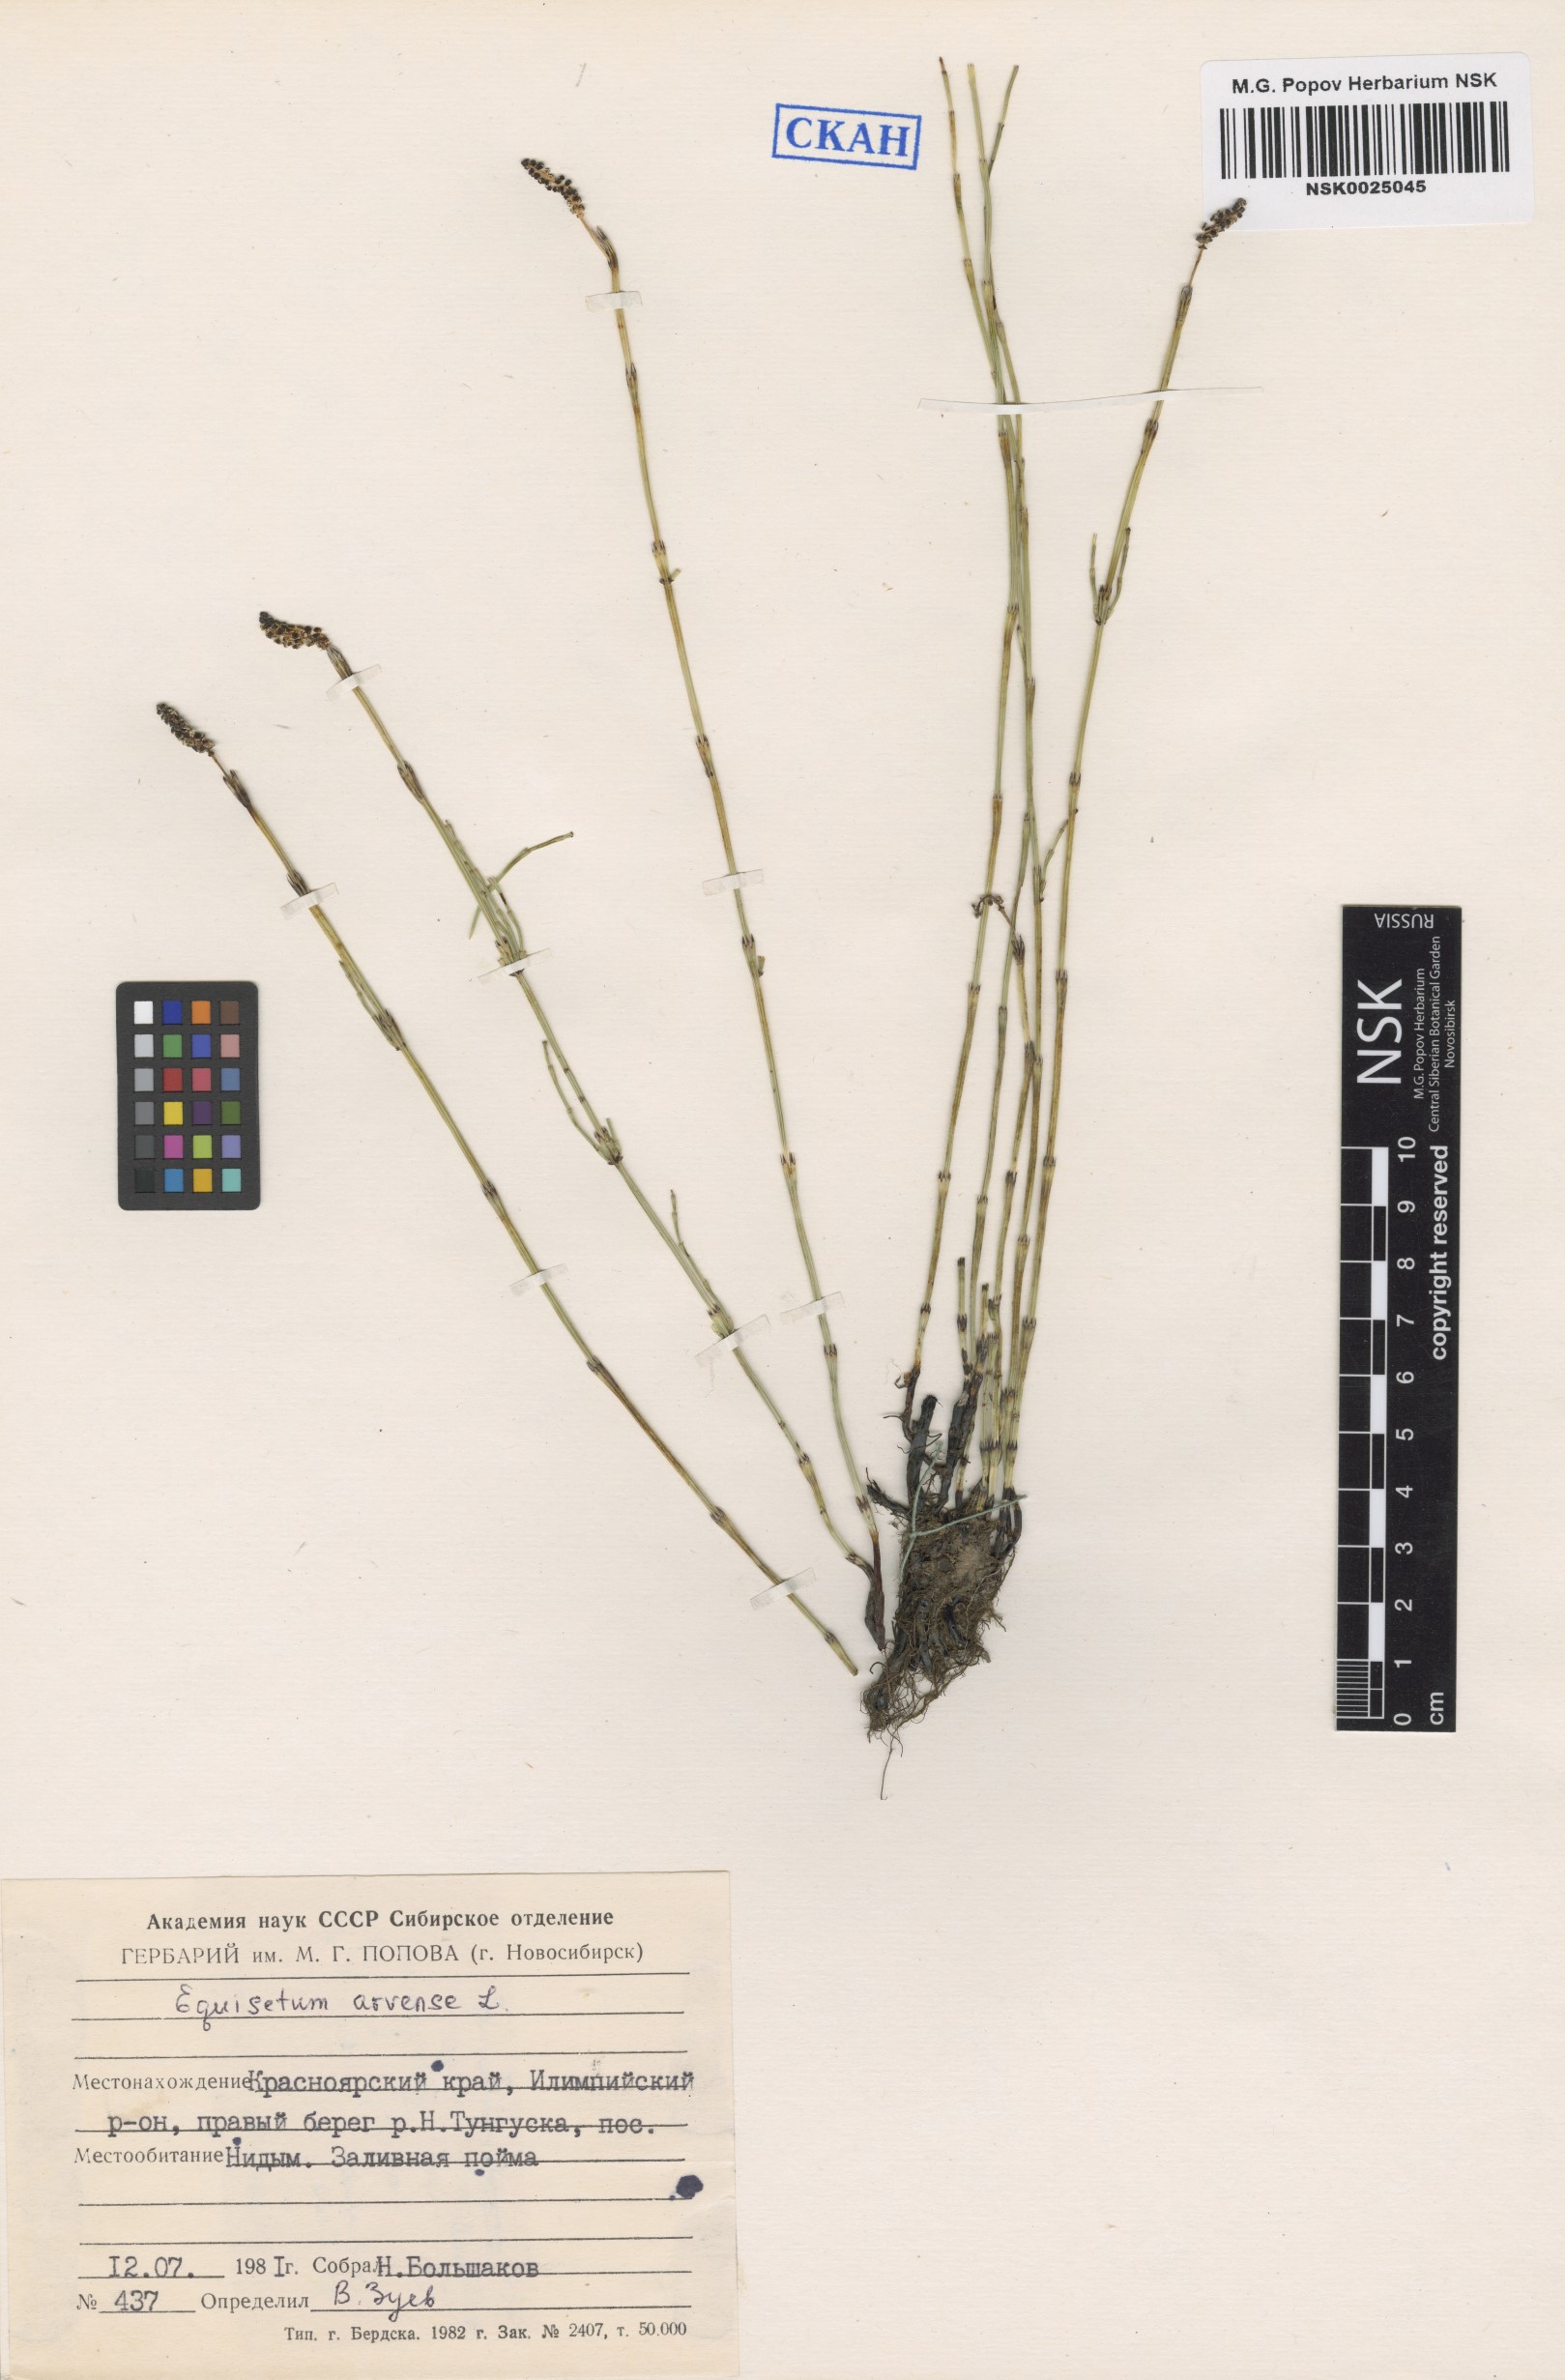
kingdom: Plantae
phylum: Tracheophyta
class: Polypodiopsida
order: Equisetales
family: Equisetaceae
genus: Equisetum
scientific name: Equisetum arvense
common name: Field horsetail
